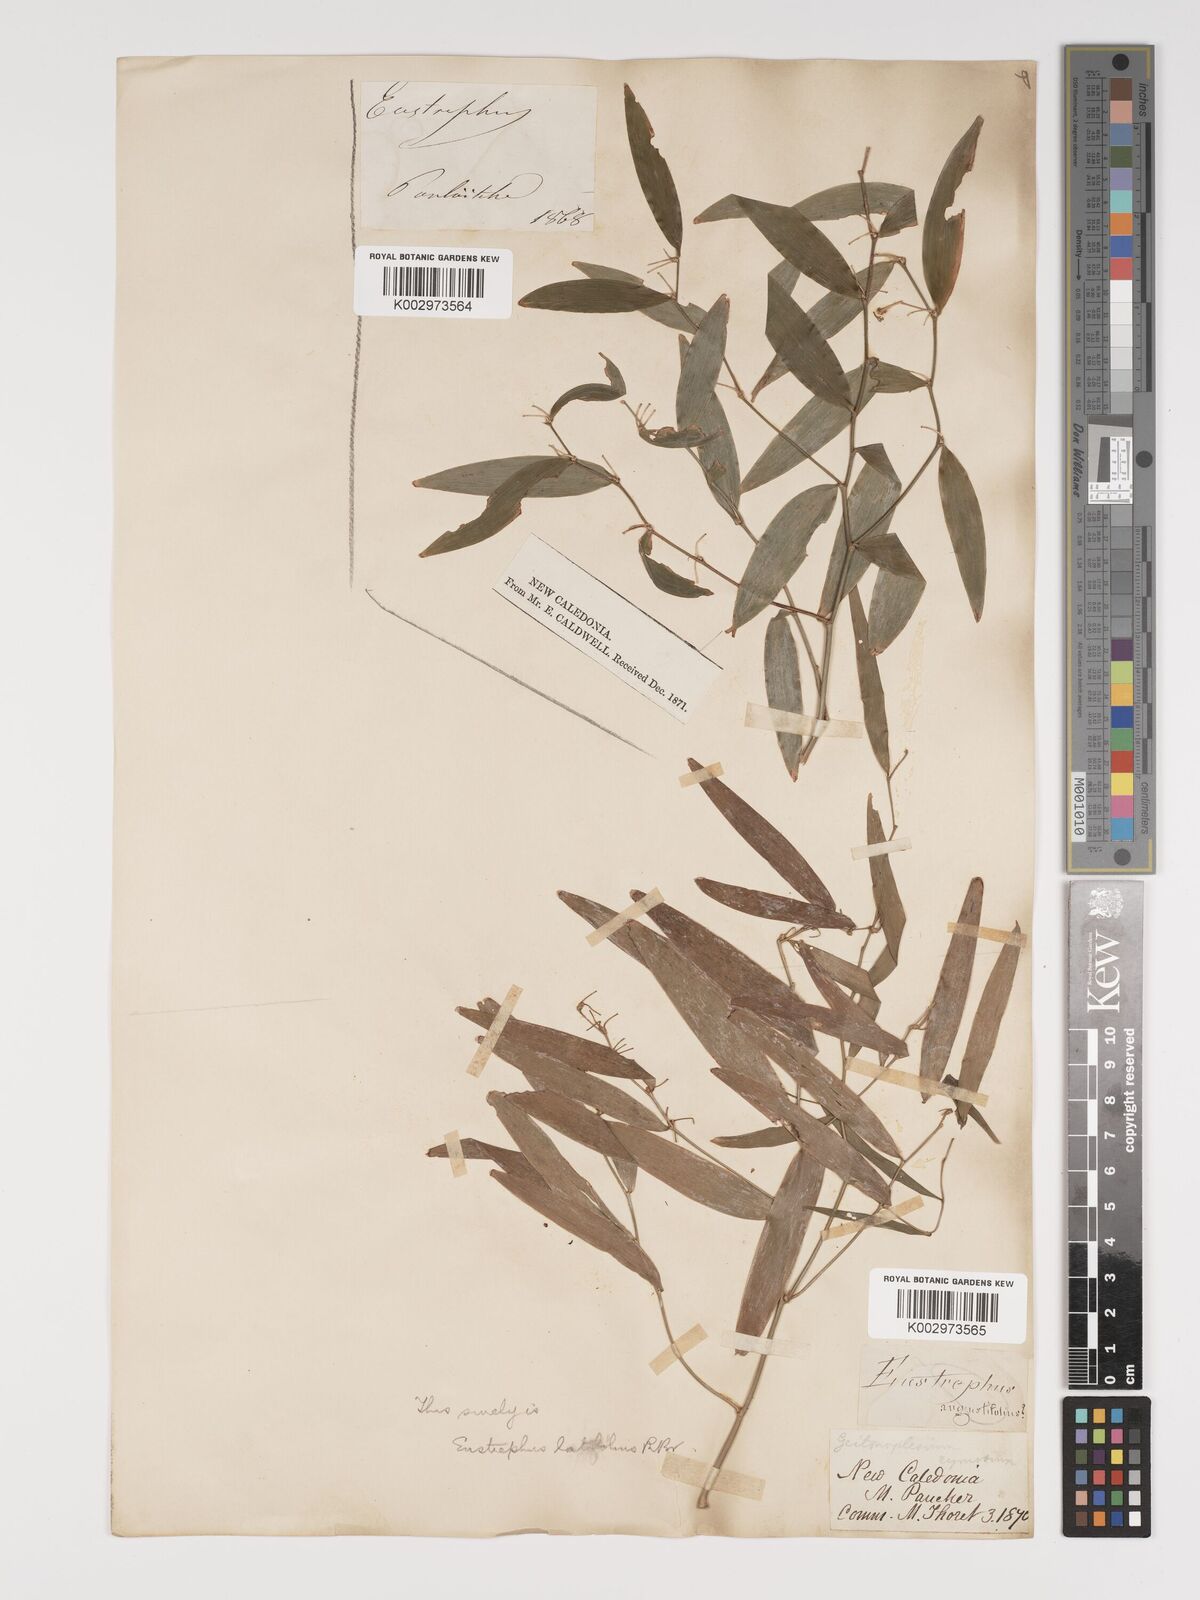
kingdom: Plantae
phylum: Tracheophyta
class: Liliopsida
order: Asparagales
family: Asparagaceae
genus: Eustrephus
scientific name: Eustrephus latifolius
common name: Orangevine
